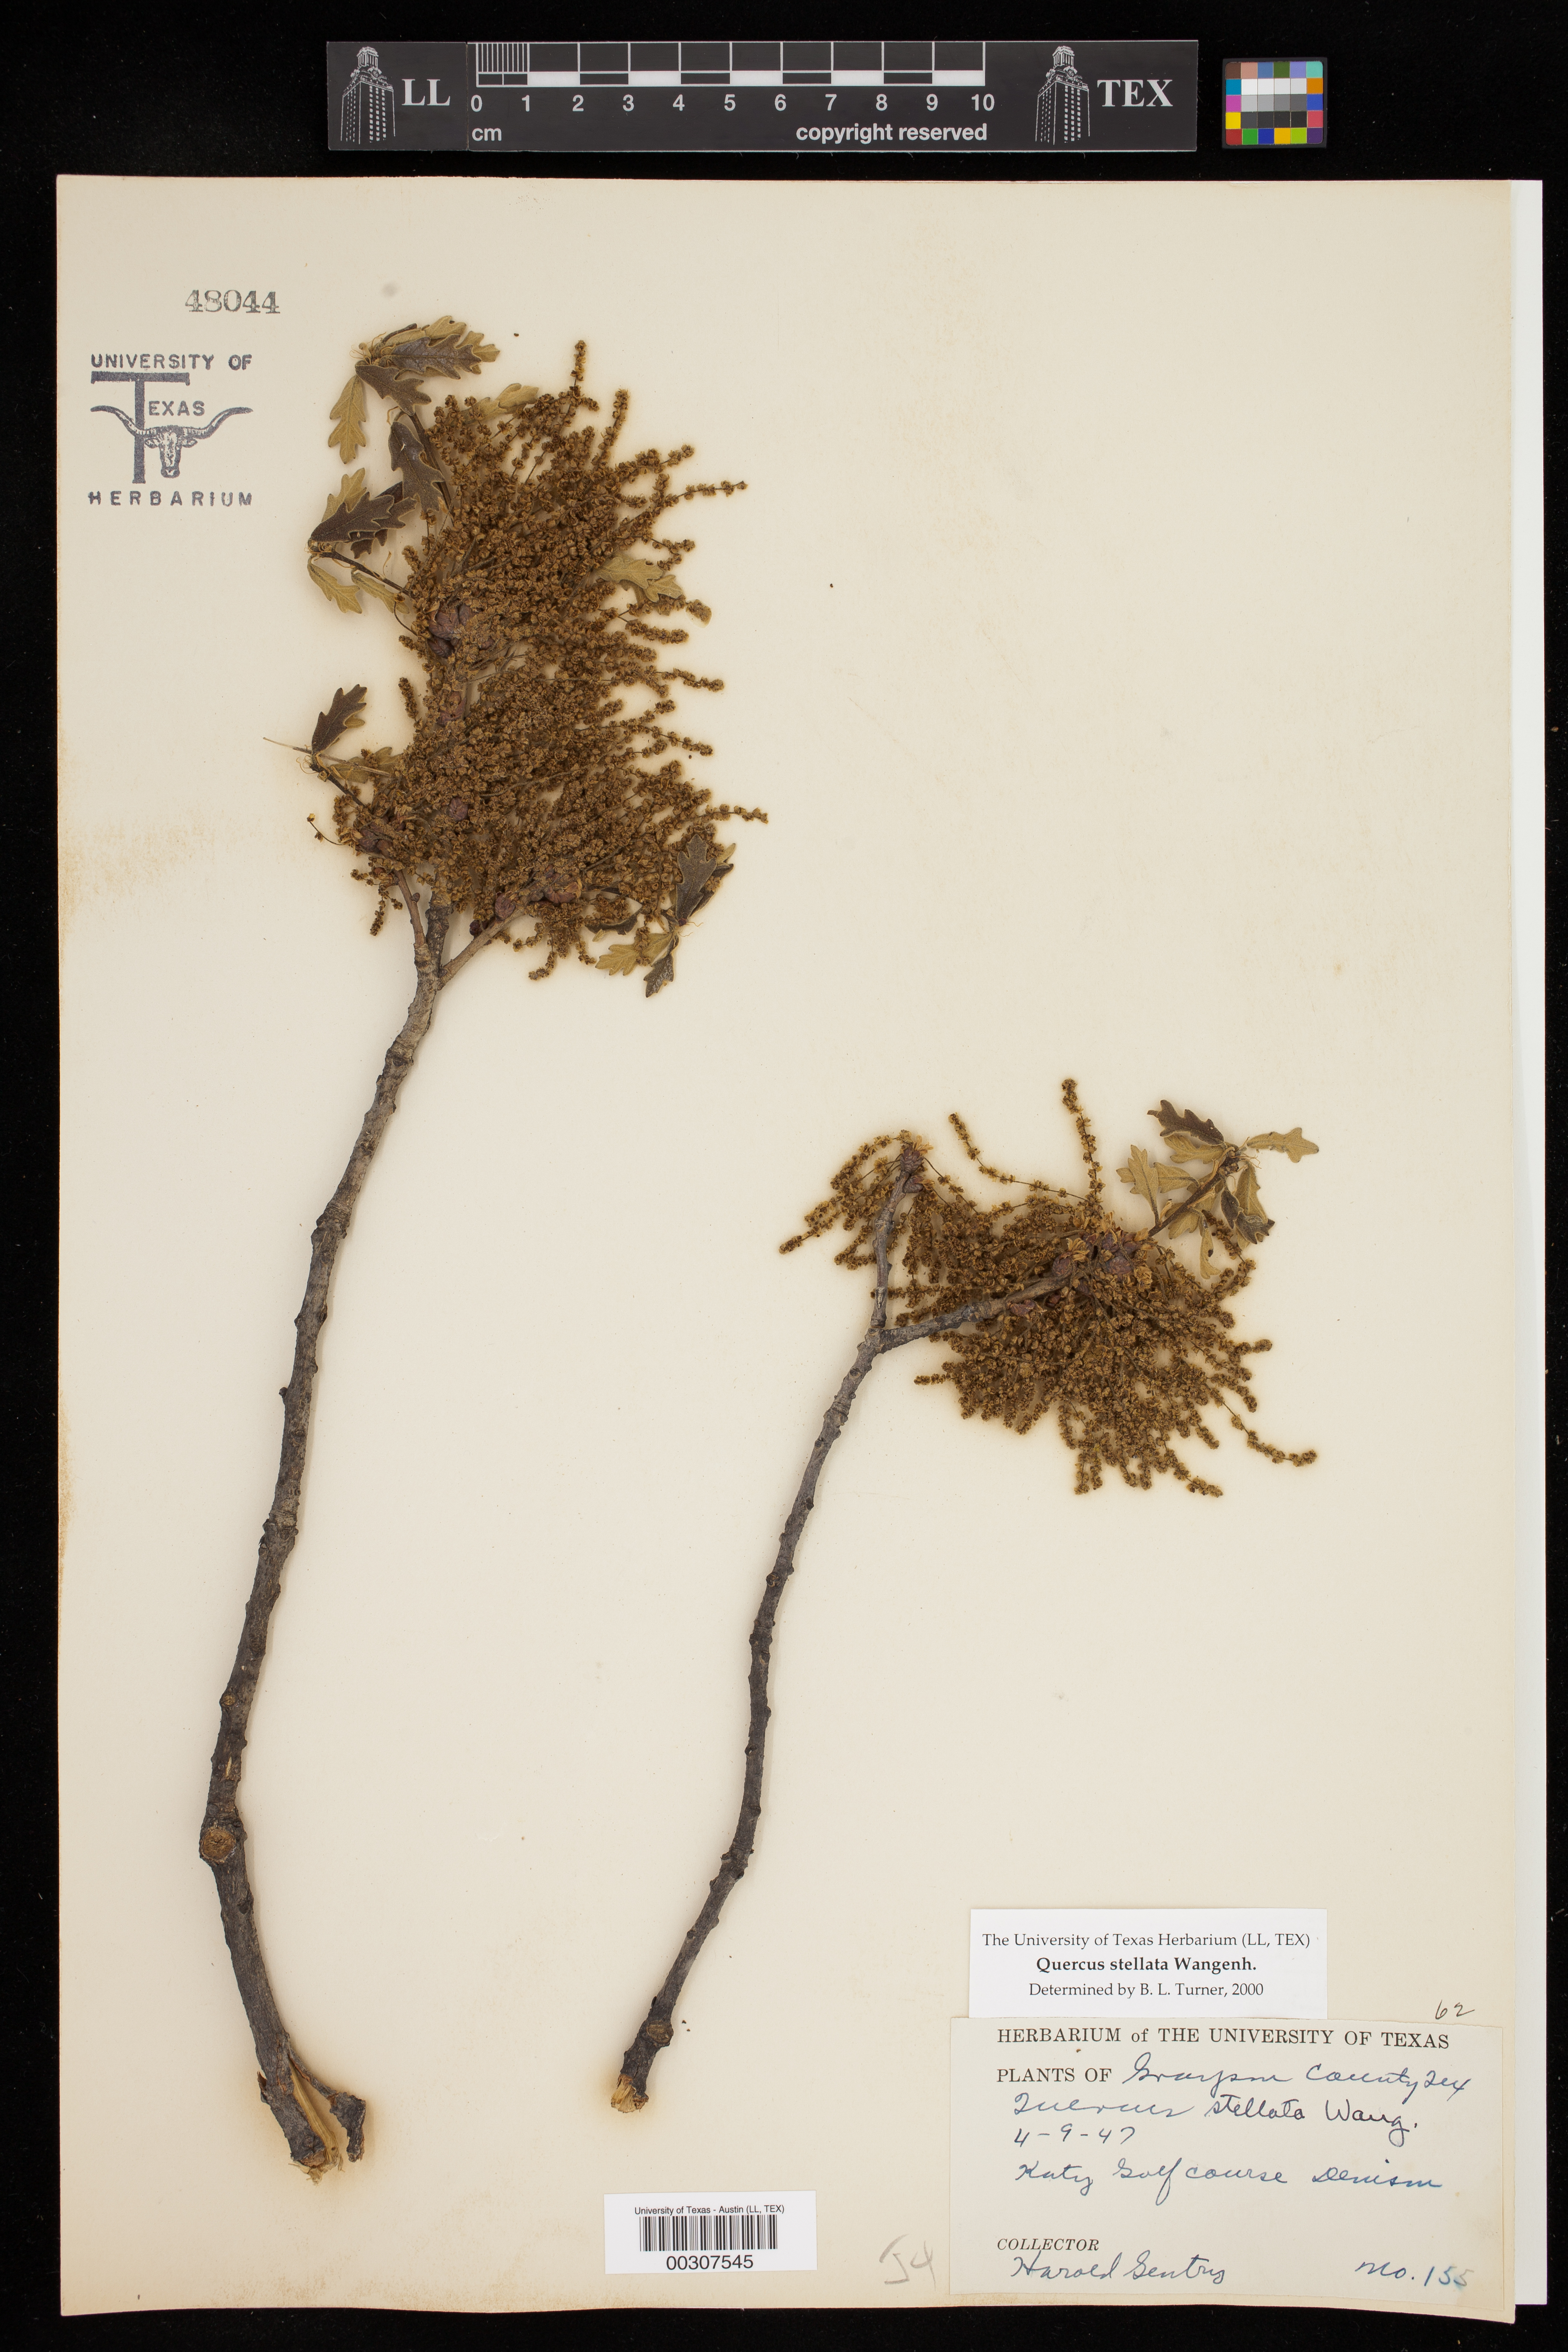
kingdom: Plantae
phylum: Tracheophyta
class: Magnoliopsida
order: Fagales
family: Fagaceae
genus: Quercus
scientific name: Quercus stellata
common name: Post oak
